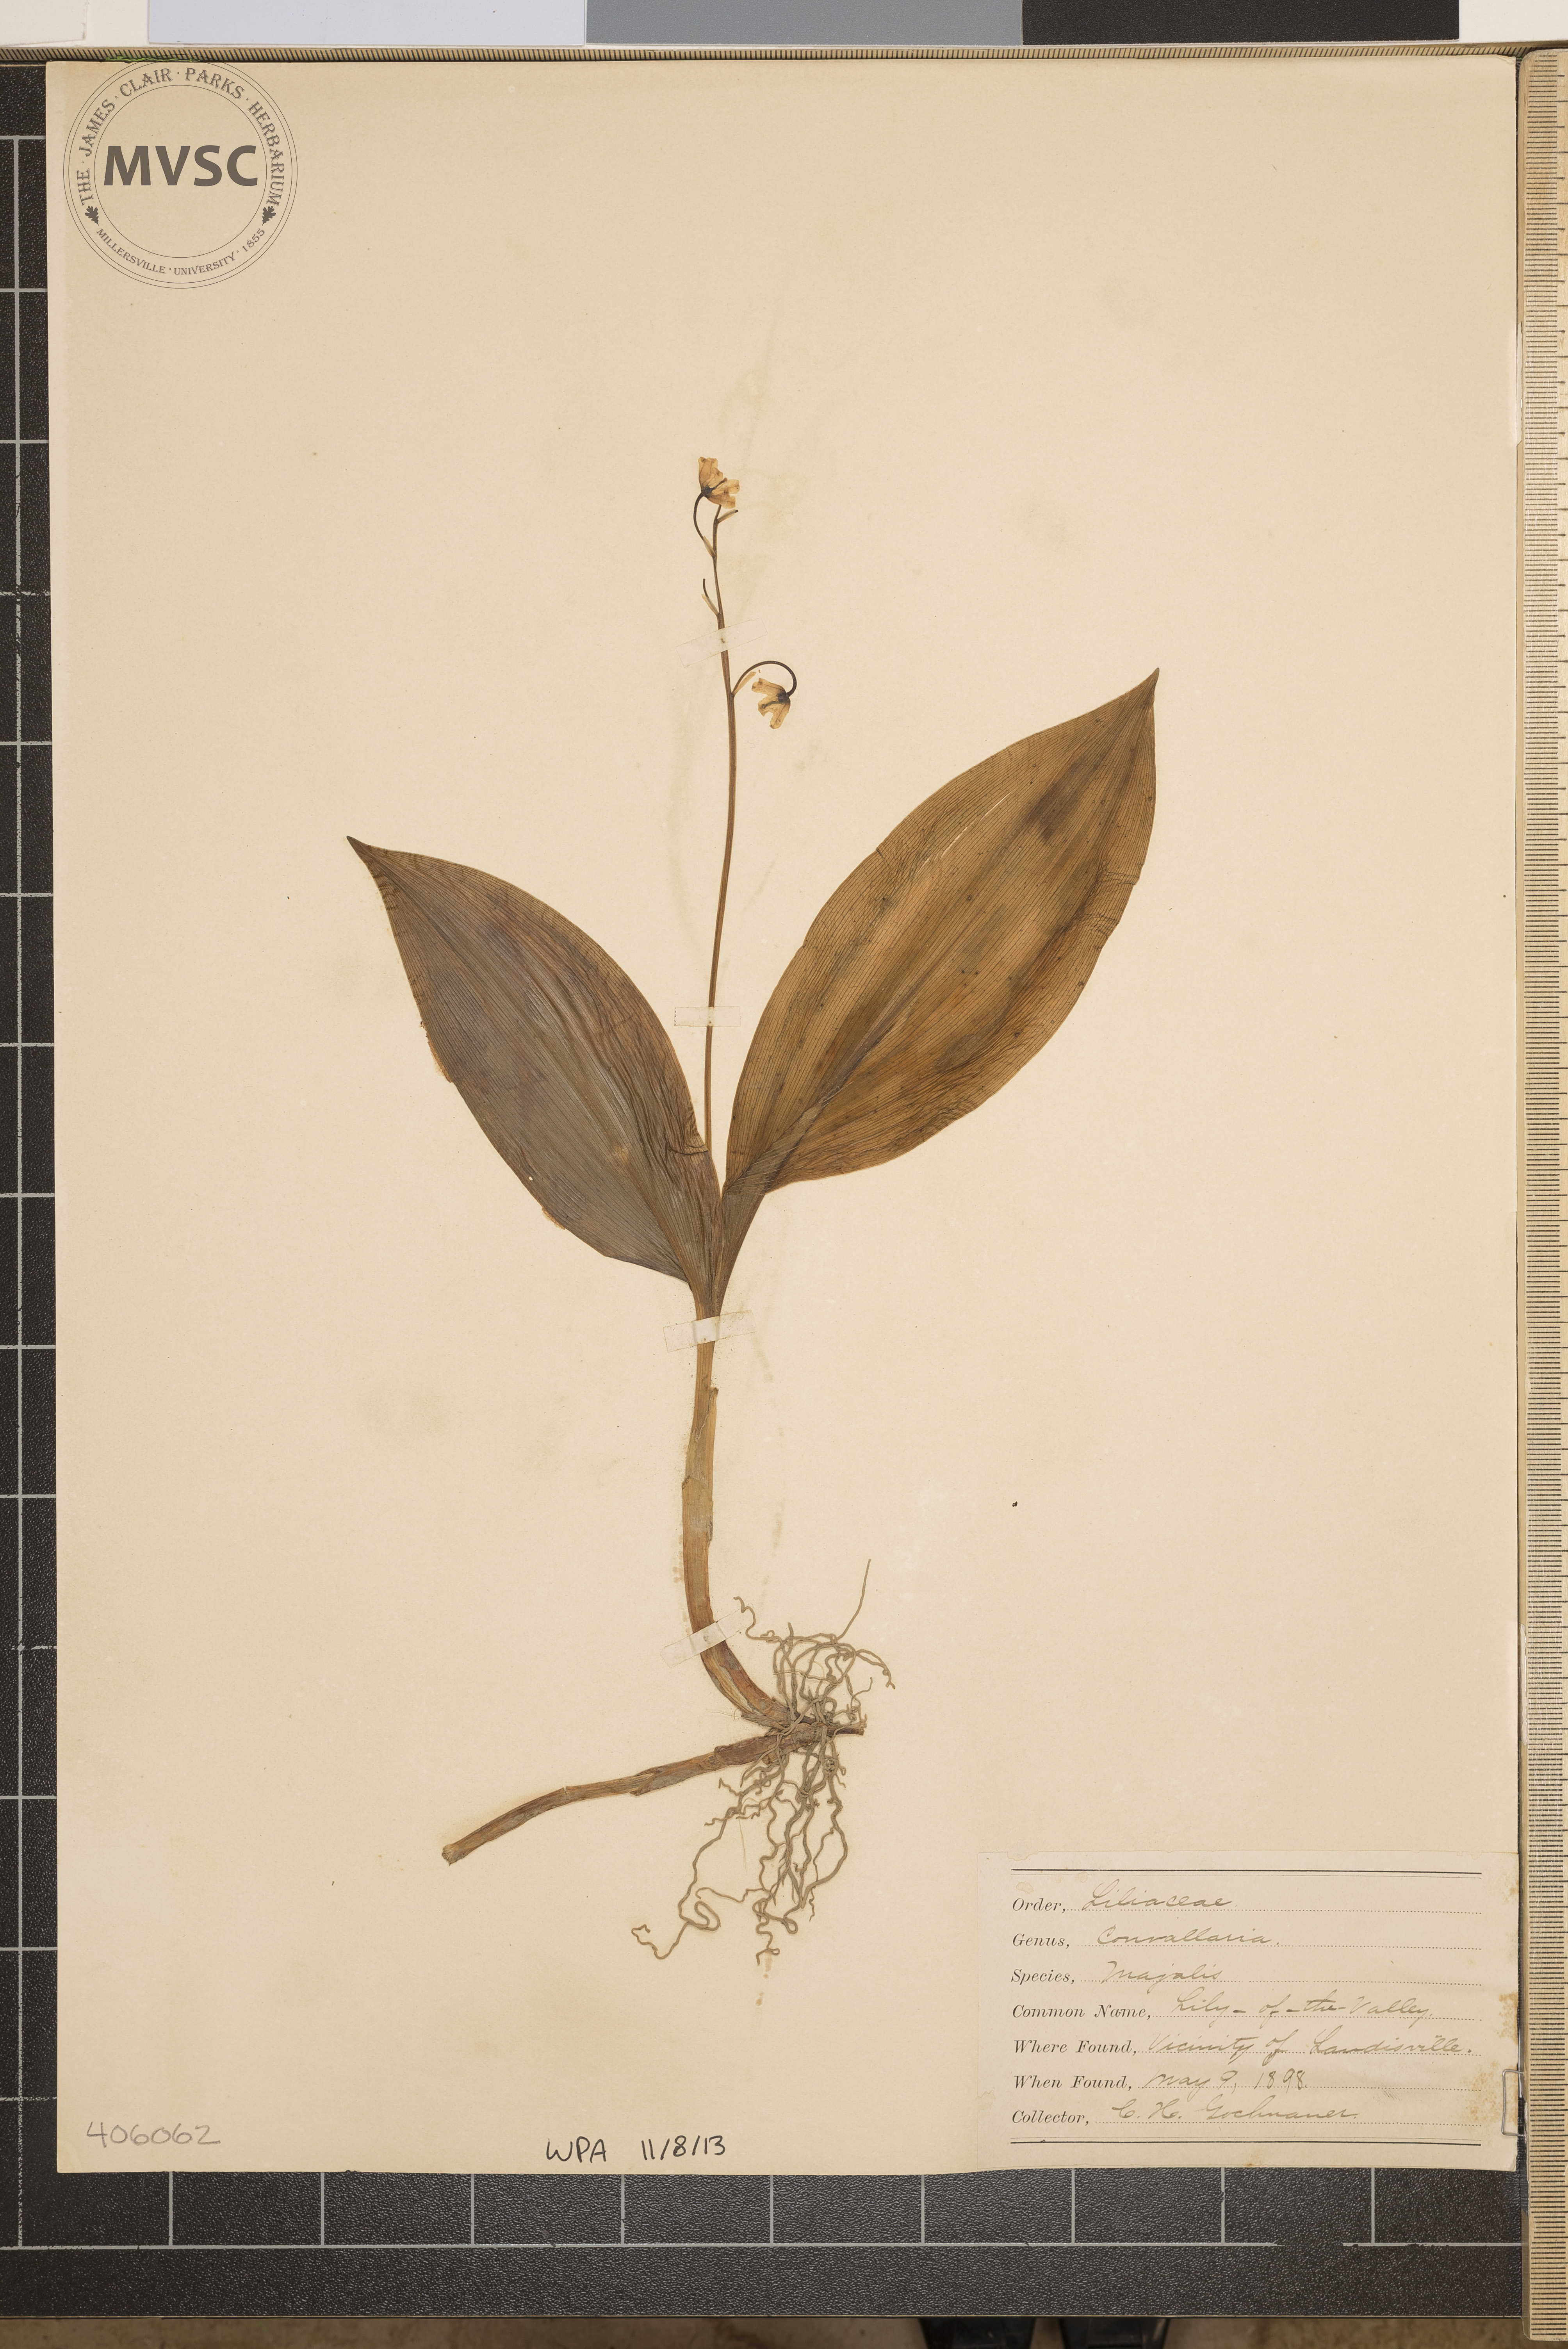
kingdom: Plantae
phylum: Tracheophyta
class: Liliopsida
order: Asparagales
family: Asparagaceae
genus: Convallaria
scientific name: Convallaria majalis
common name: Lily-of-the-valley
